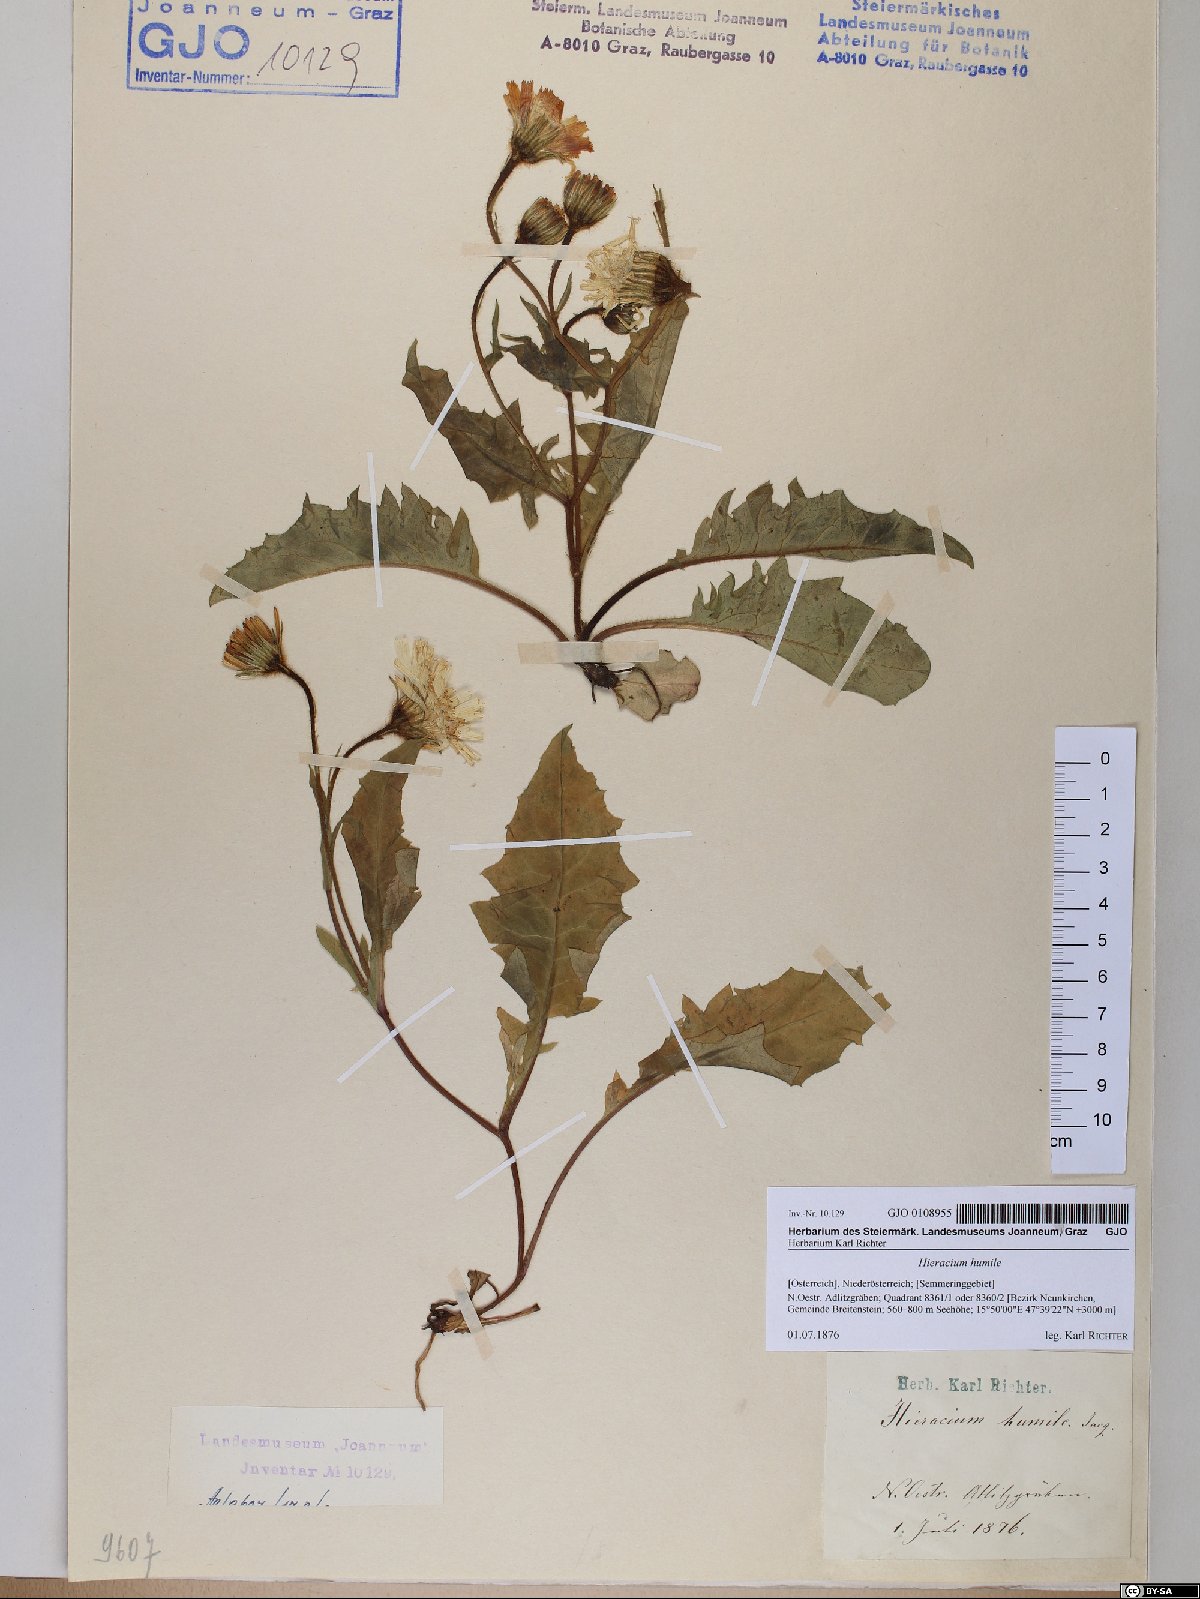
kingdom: Plantae
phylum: Tracheophyta
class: Magnoliopsida
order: Asterales
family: Asteraceae
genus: Hieracium
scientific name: Hieracium humile
